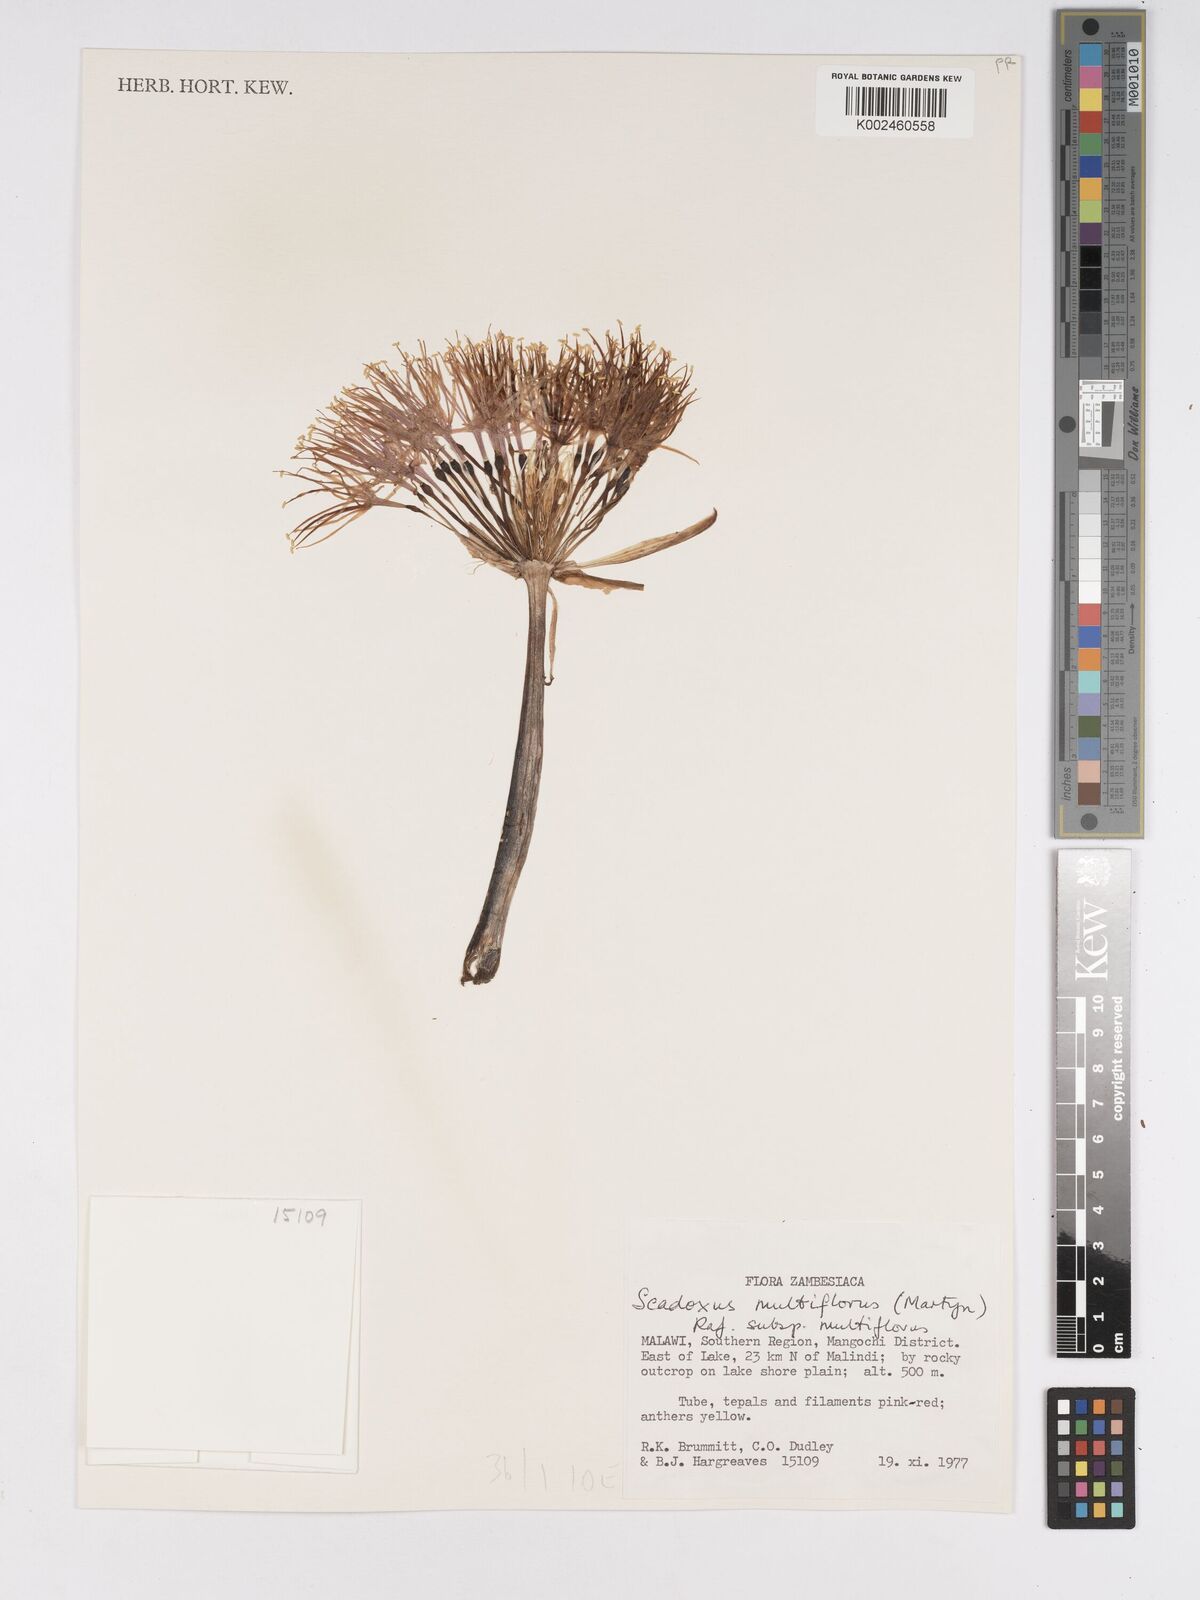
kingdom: Plantae
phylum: Tracheophyta
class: Liliopsida
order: Asparagales
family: Amaryllidaceae
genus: Scadoxus
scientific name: Scadoxus multiflorus
